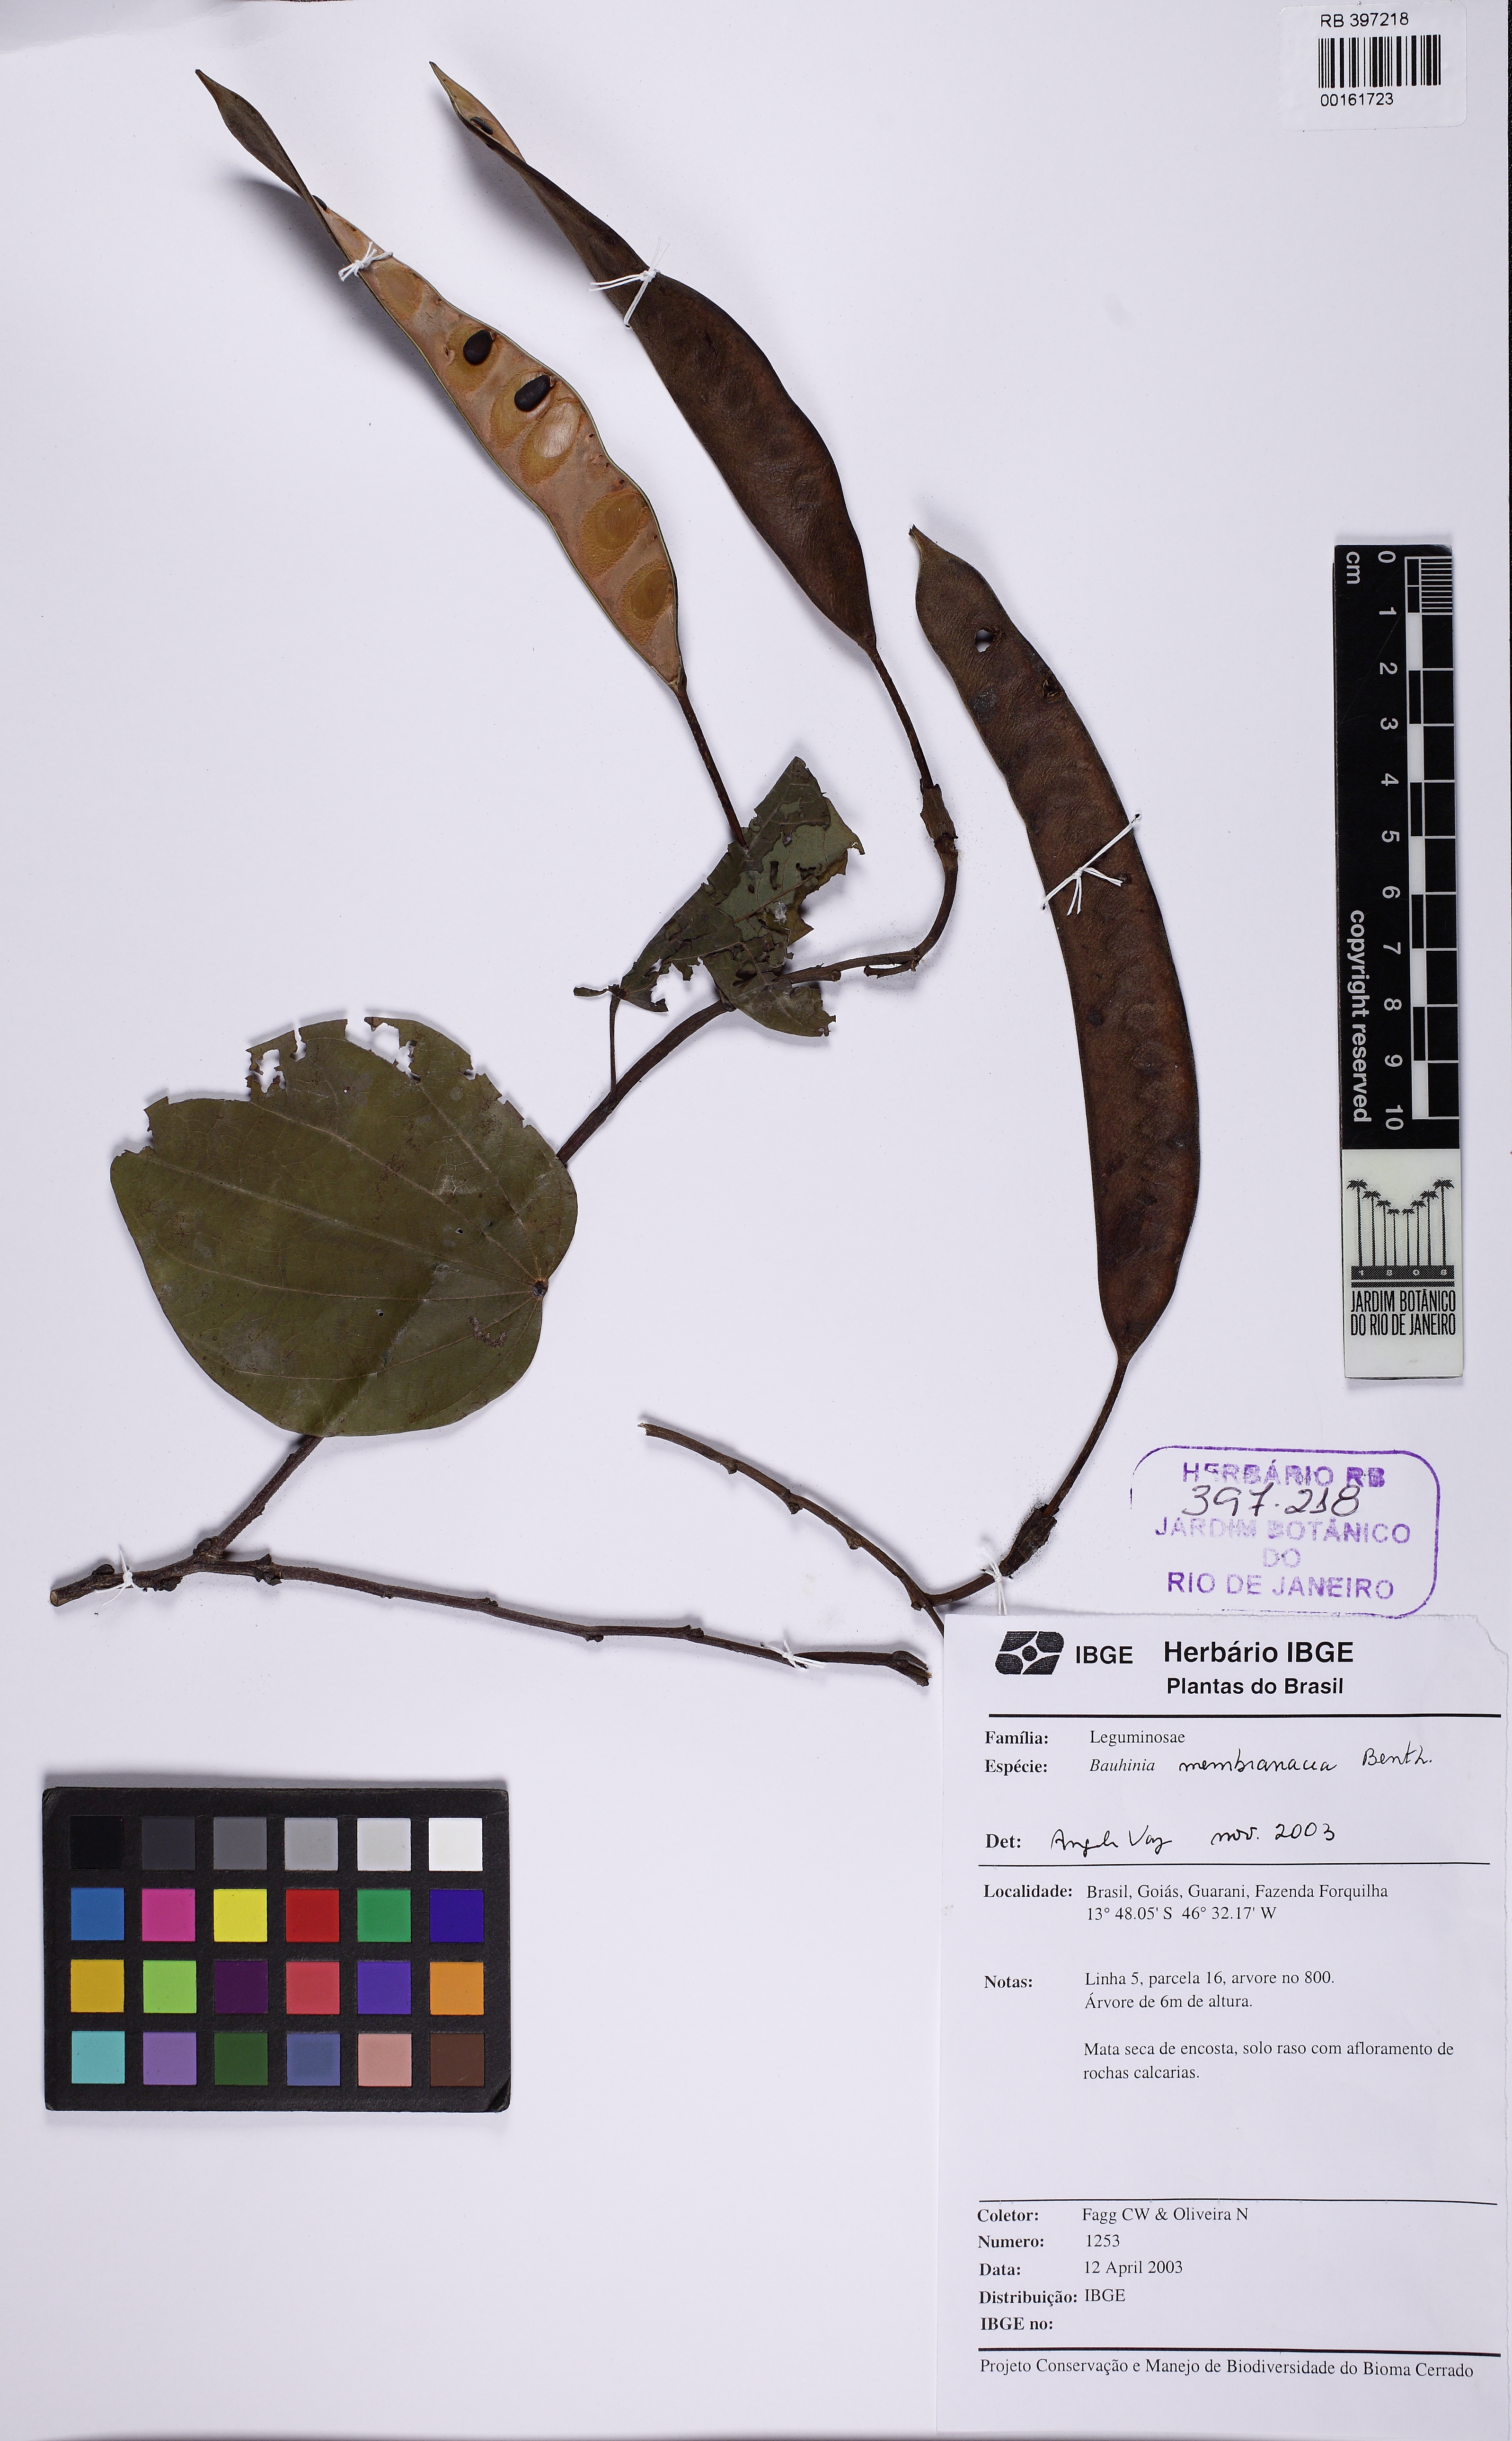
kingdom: Plantae
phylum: Tracheophyta
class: Magnoliopsida
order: Fabales
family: Fabaceae
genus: Bauhinia
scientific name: Bauhinia membranacea
